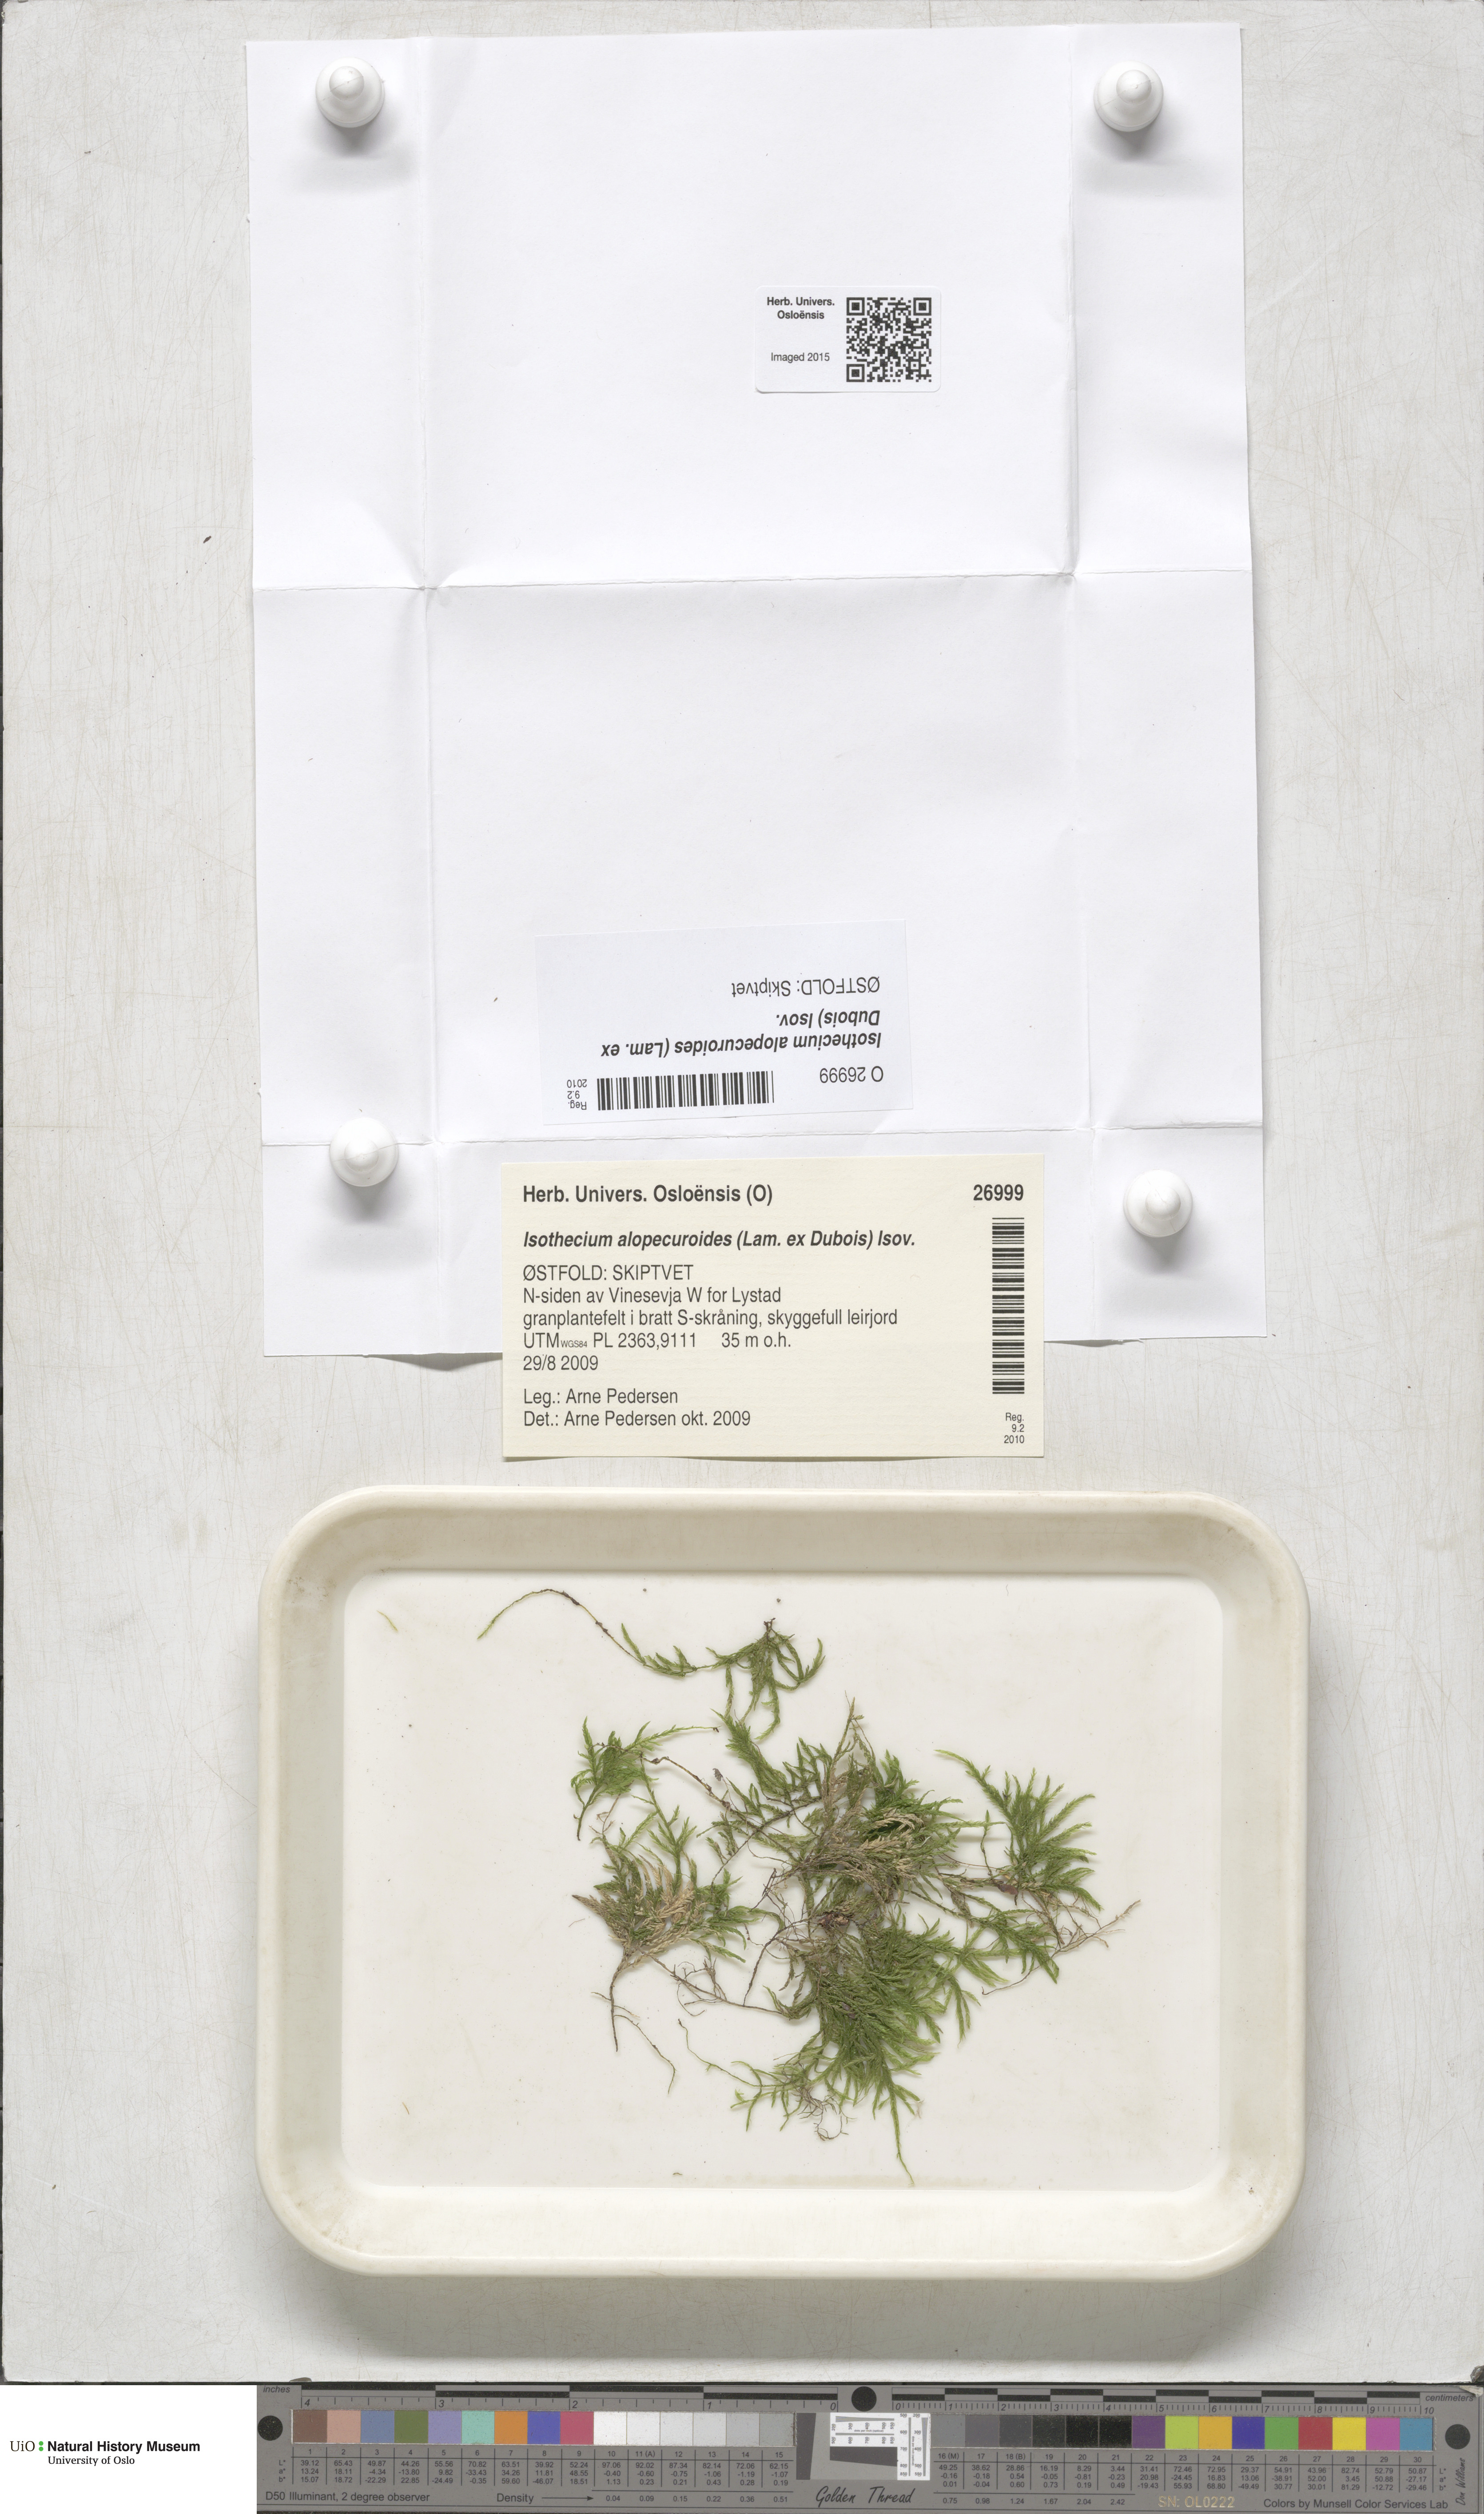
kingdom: Plantae
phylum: Bryophyta
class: Bryopsida
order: Hypnales
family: Lembophyllaceae
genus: Isothecium
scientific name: Isothecium alopecuroides
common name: Larger mouse-tail moss
